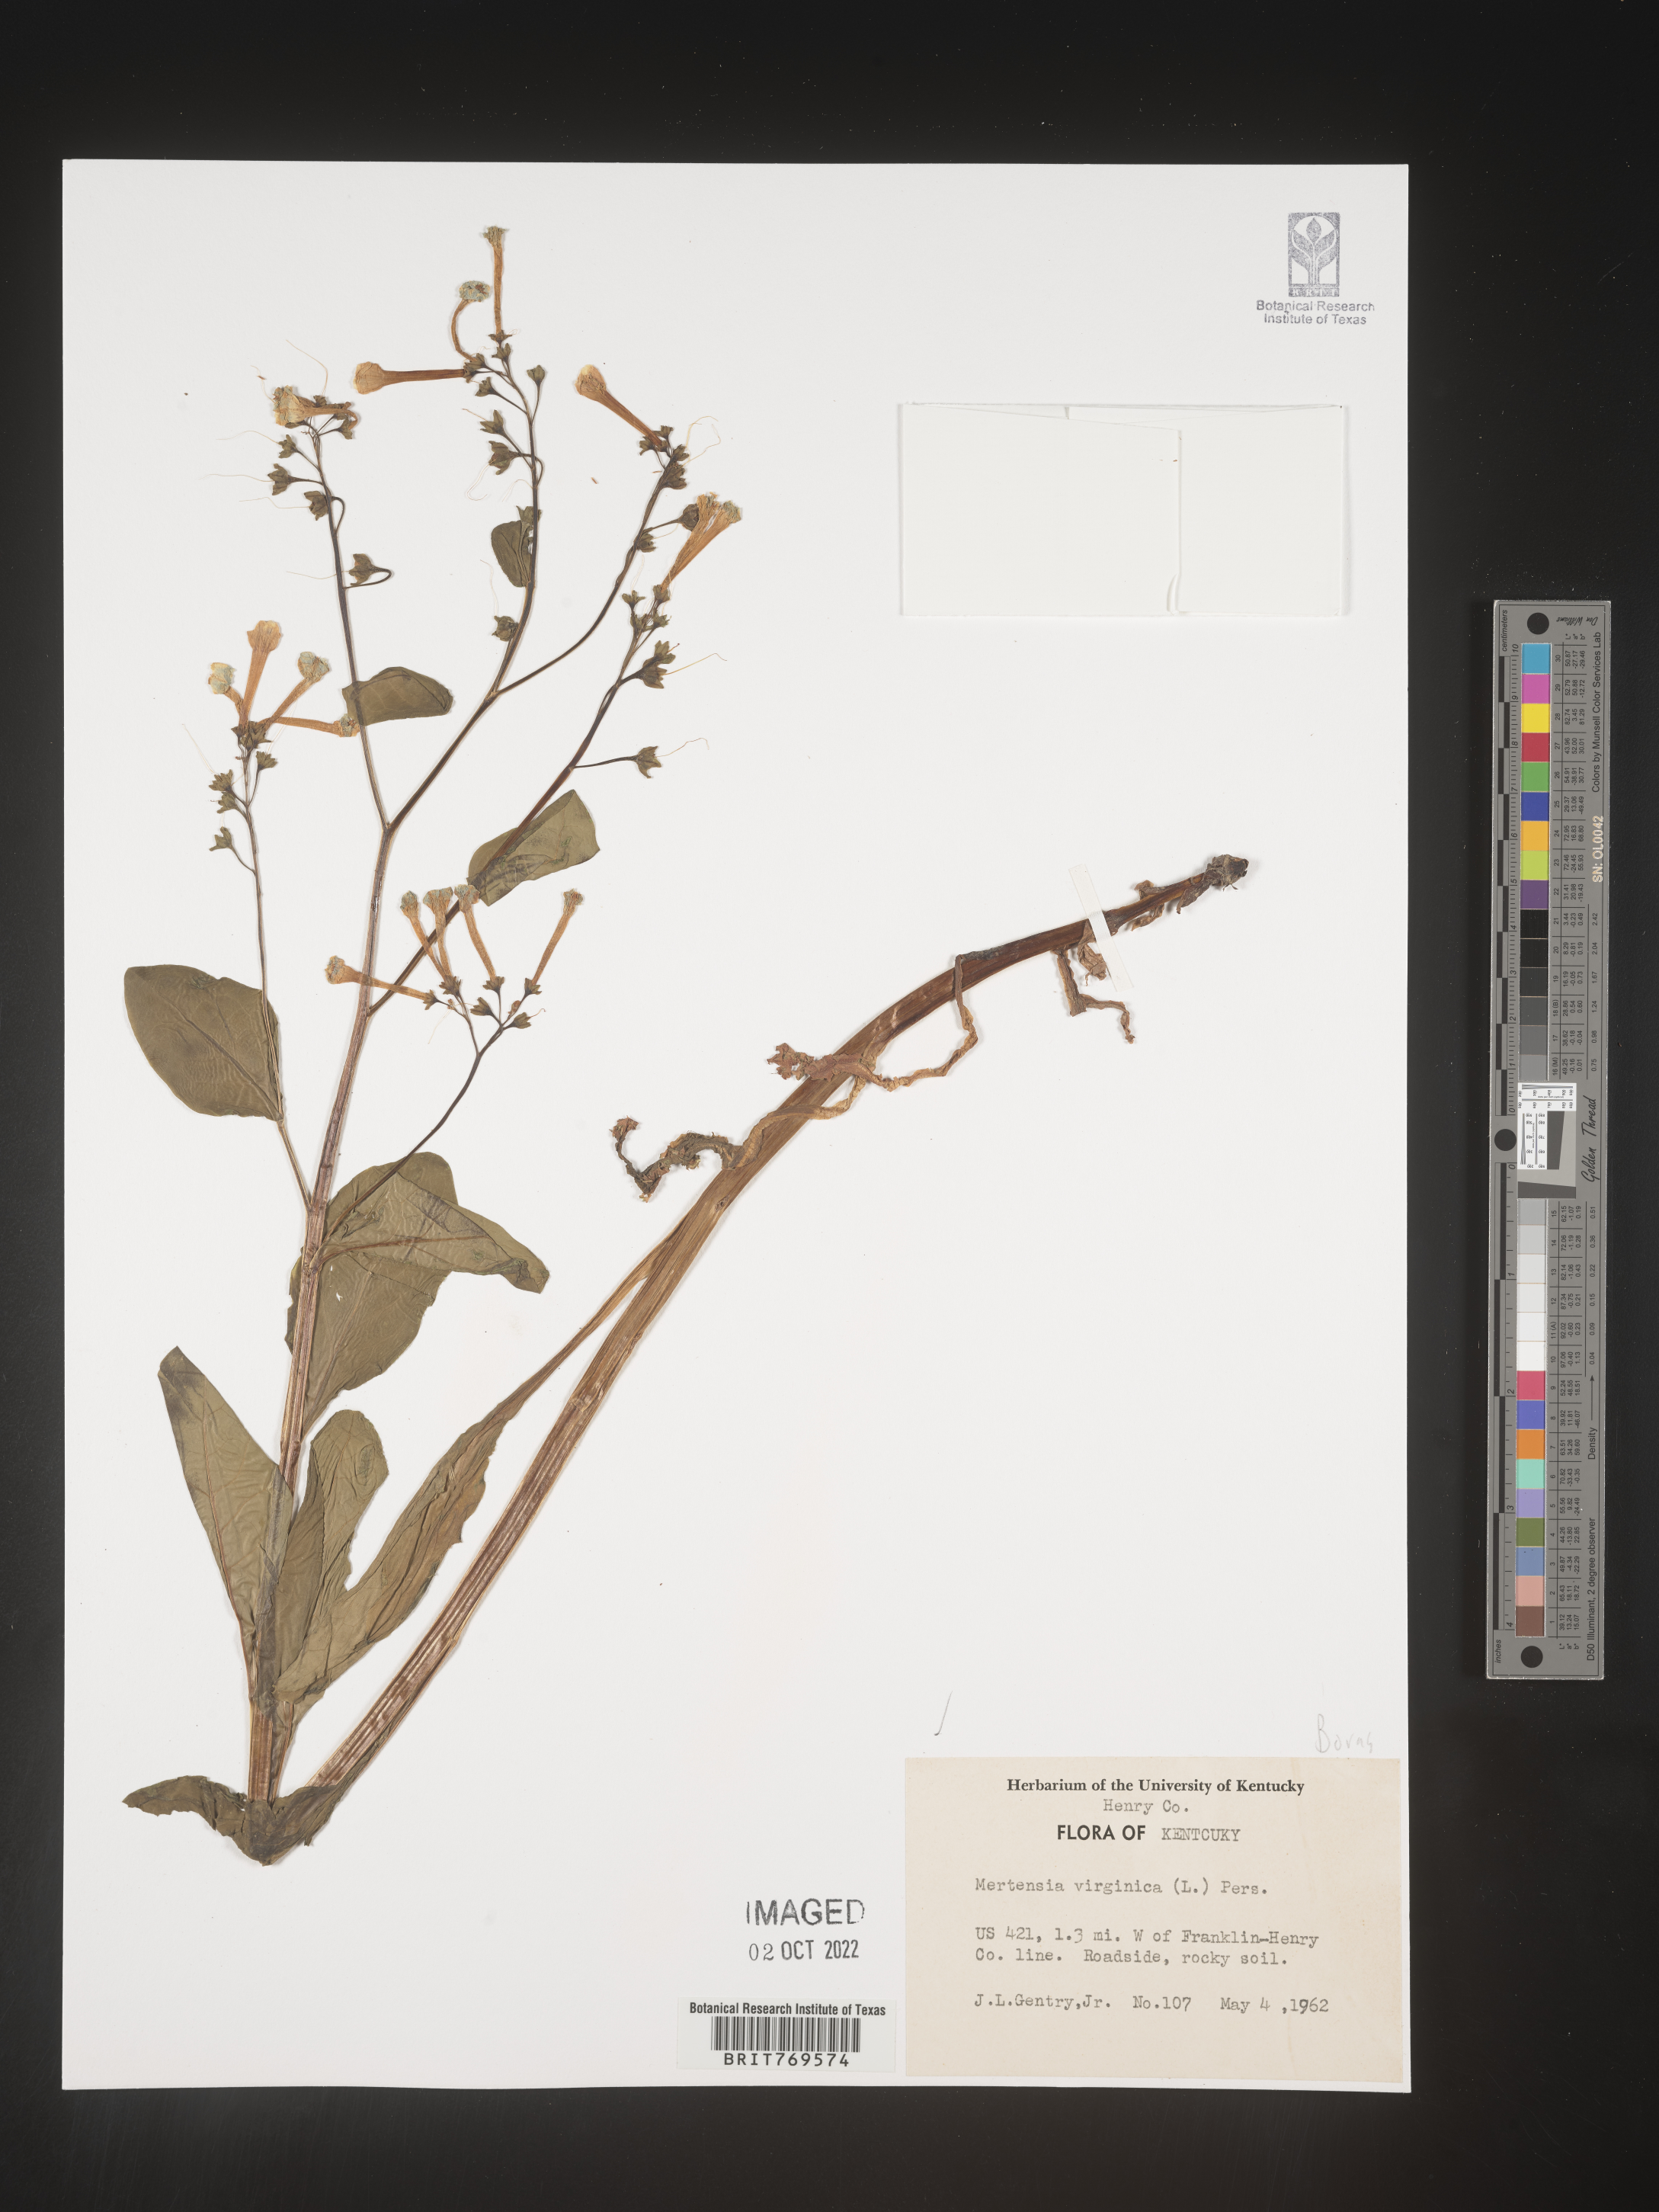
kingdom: Plantae
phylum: Tracheophyta
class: Magnoliopsida
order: Boraginales
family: Boraginaceae
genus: Mertensia
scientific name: Mertensia virginica
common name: Virginia bluebells
